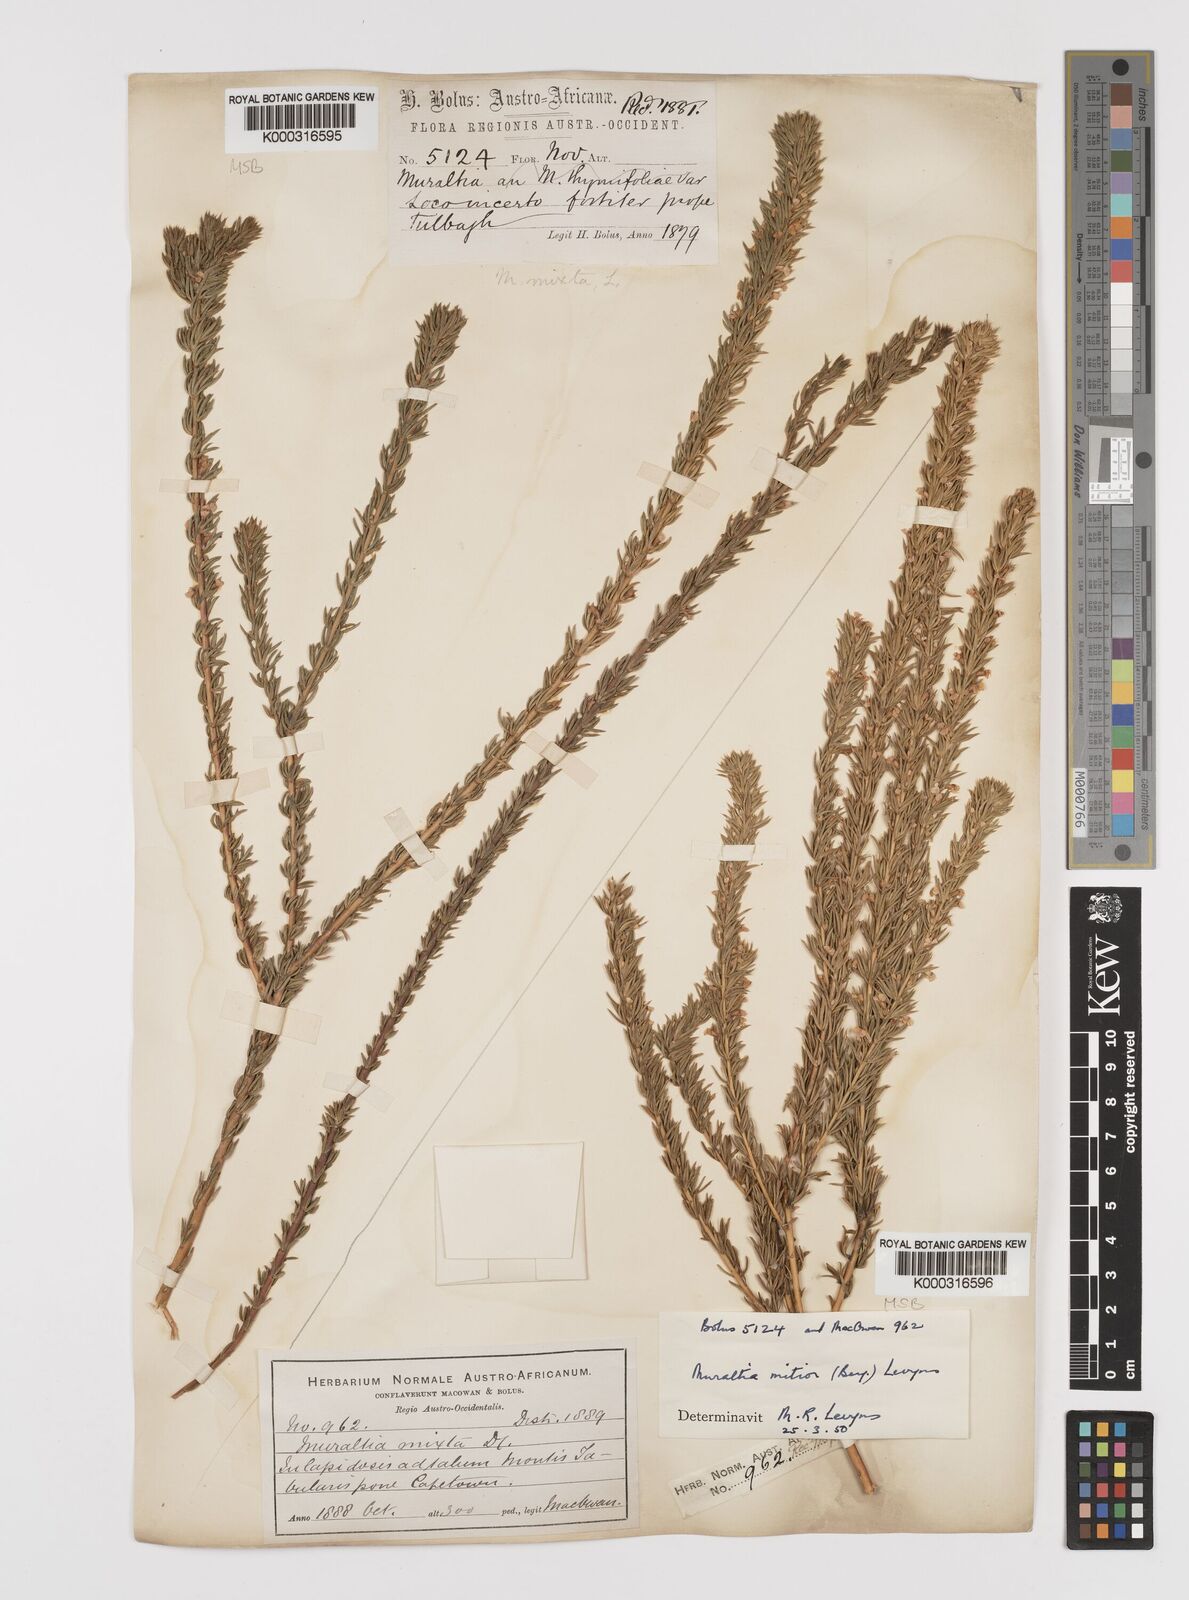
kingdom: Plantae
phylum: Tracheophyta
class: Magnoliopsida
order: Fabales
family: Polygalaceae
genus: Muraltia
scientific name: Muraltia
